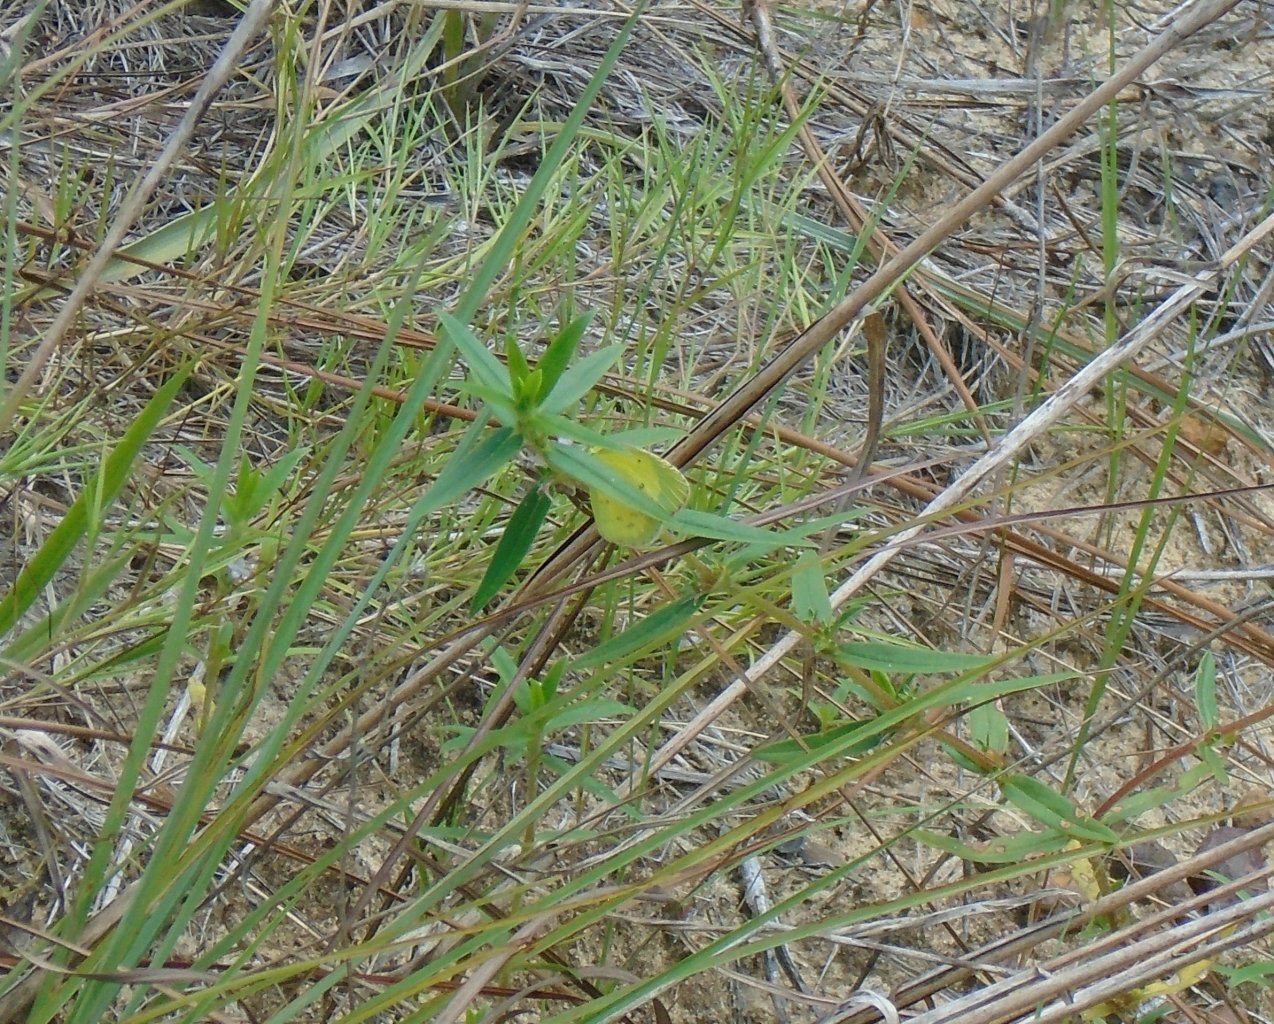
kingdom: Animalia
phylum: Arthropoda
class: Insecta
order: Lepidoptera
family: Pieridae
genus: Pyrisitia
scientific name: Pyrisitia lisa
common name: Little Yellow
